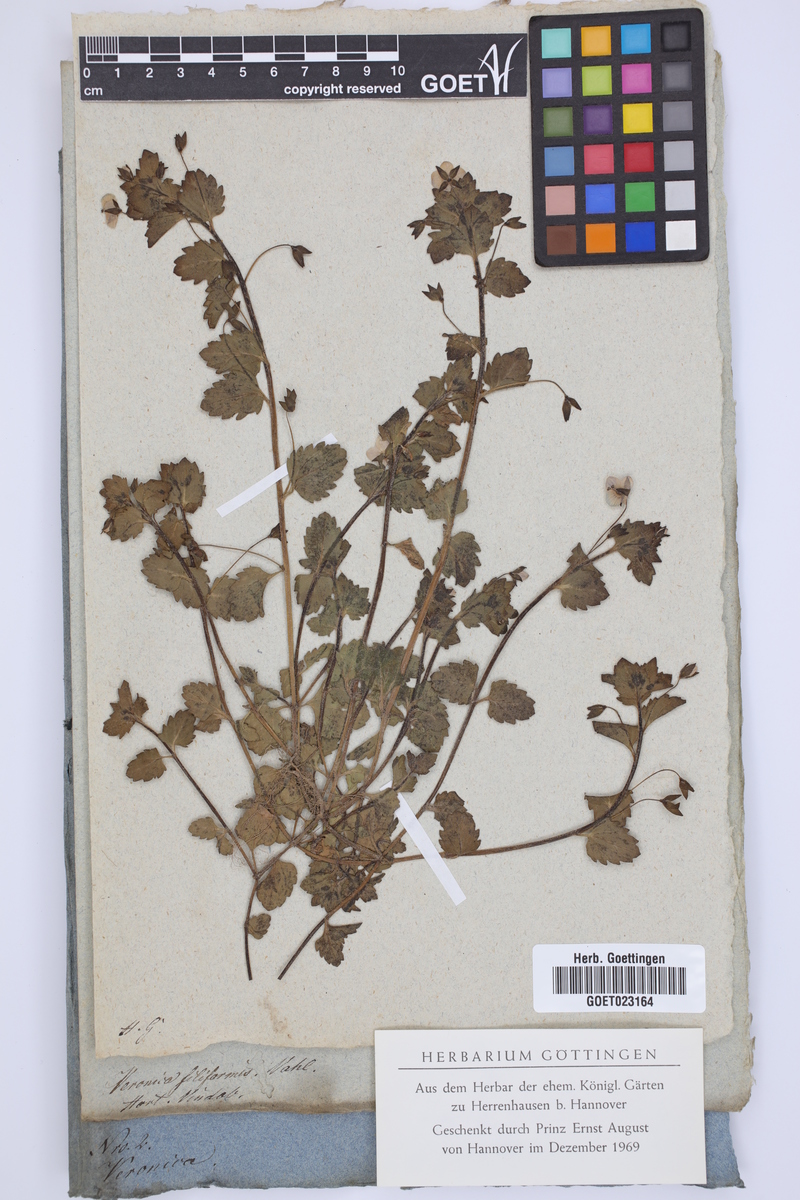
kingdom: Plantae
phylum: Tracheophyta
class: Magnoliopsida
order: Lamiales
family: Plantaginaceae
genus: Veronica
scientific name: Veronica filiformis
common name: Slender speedwell
